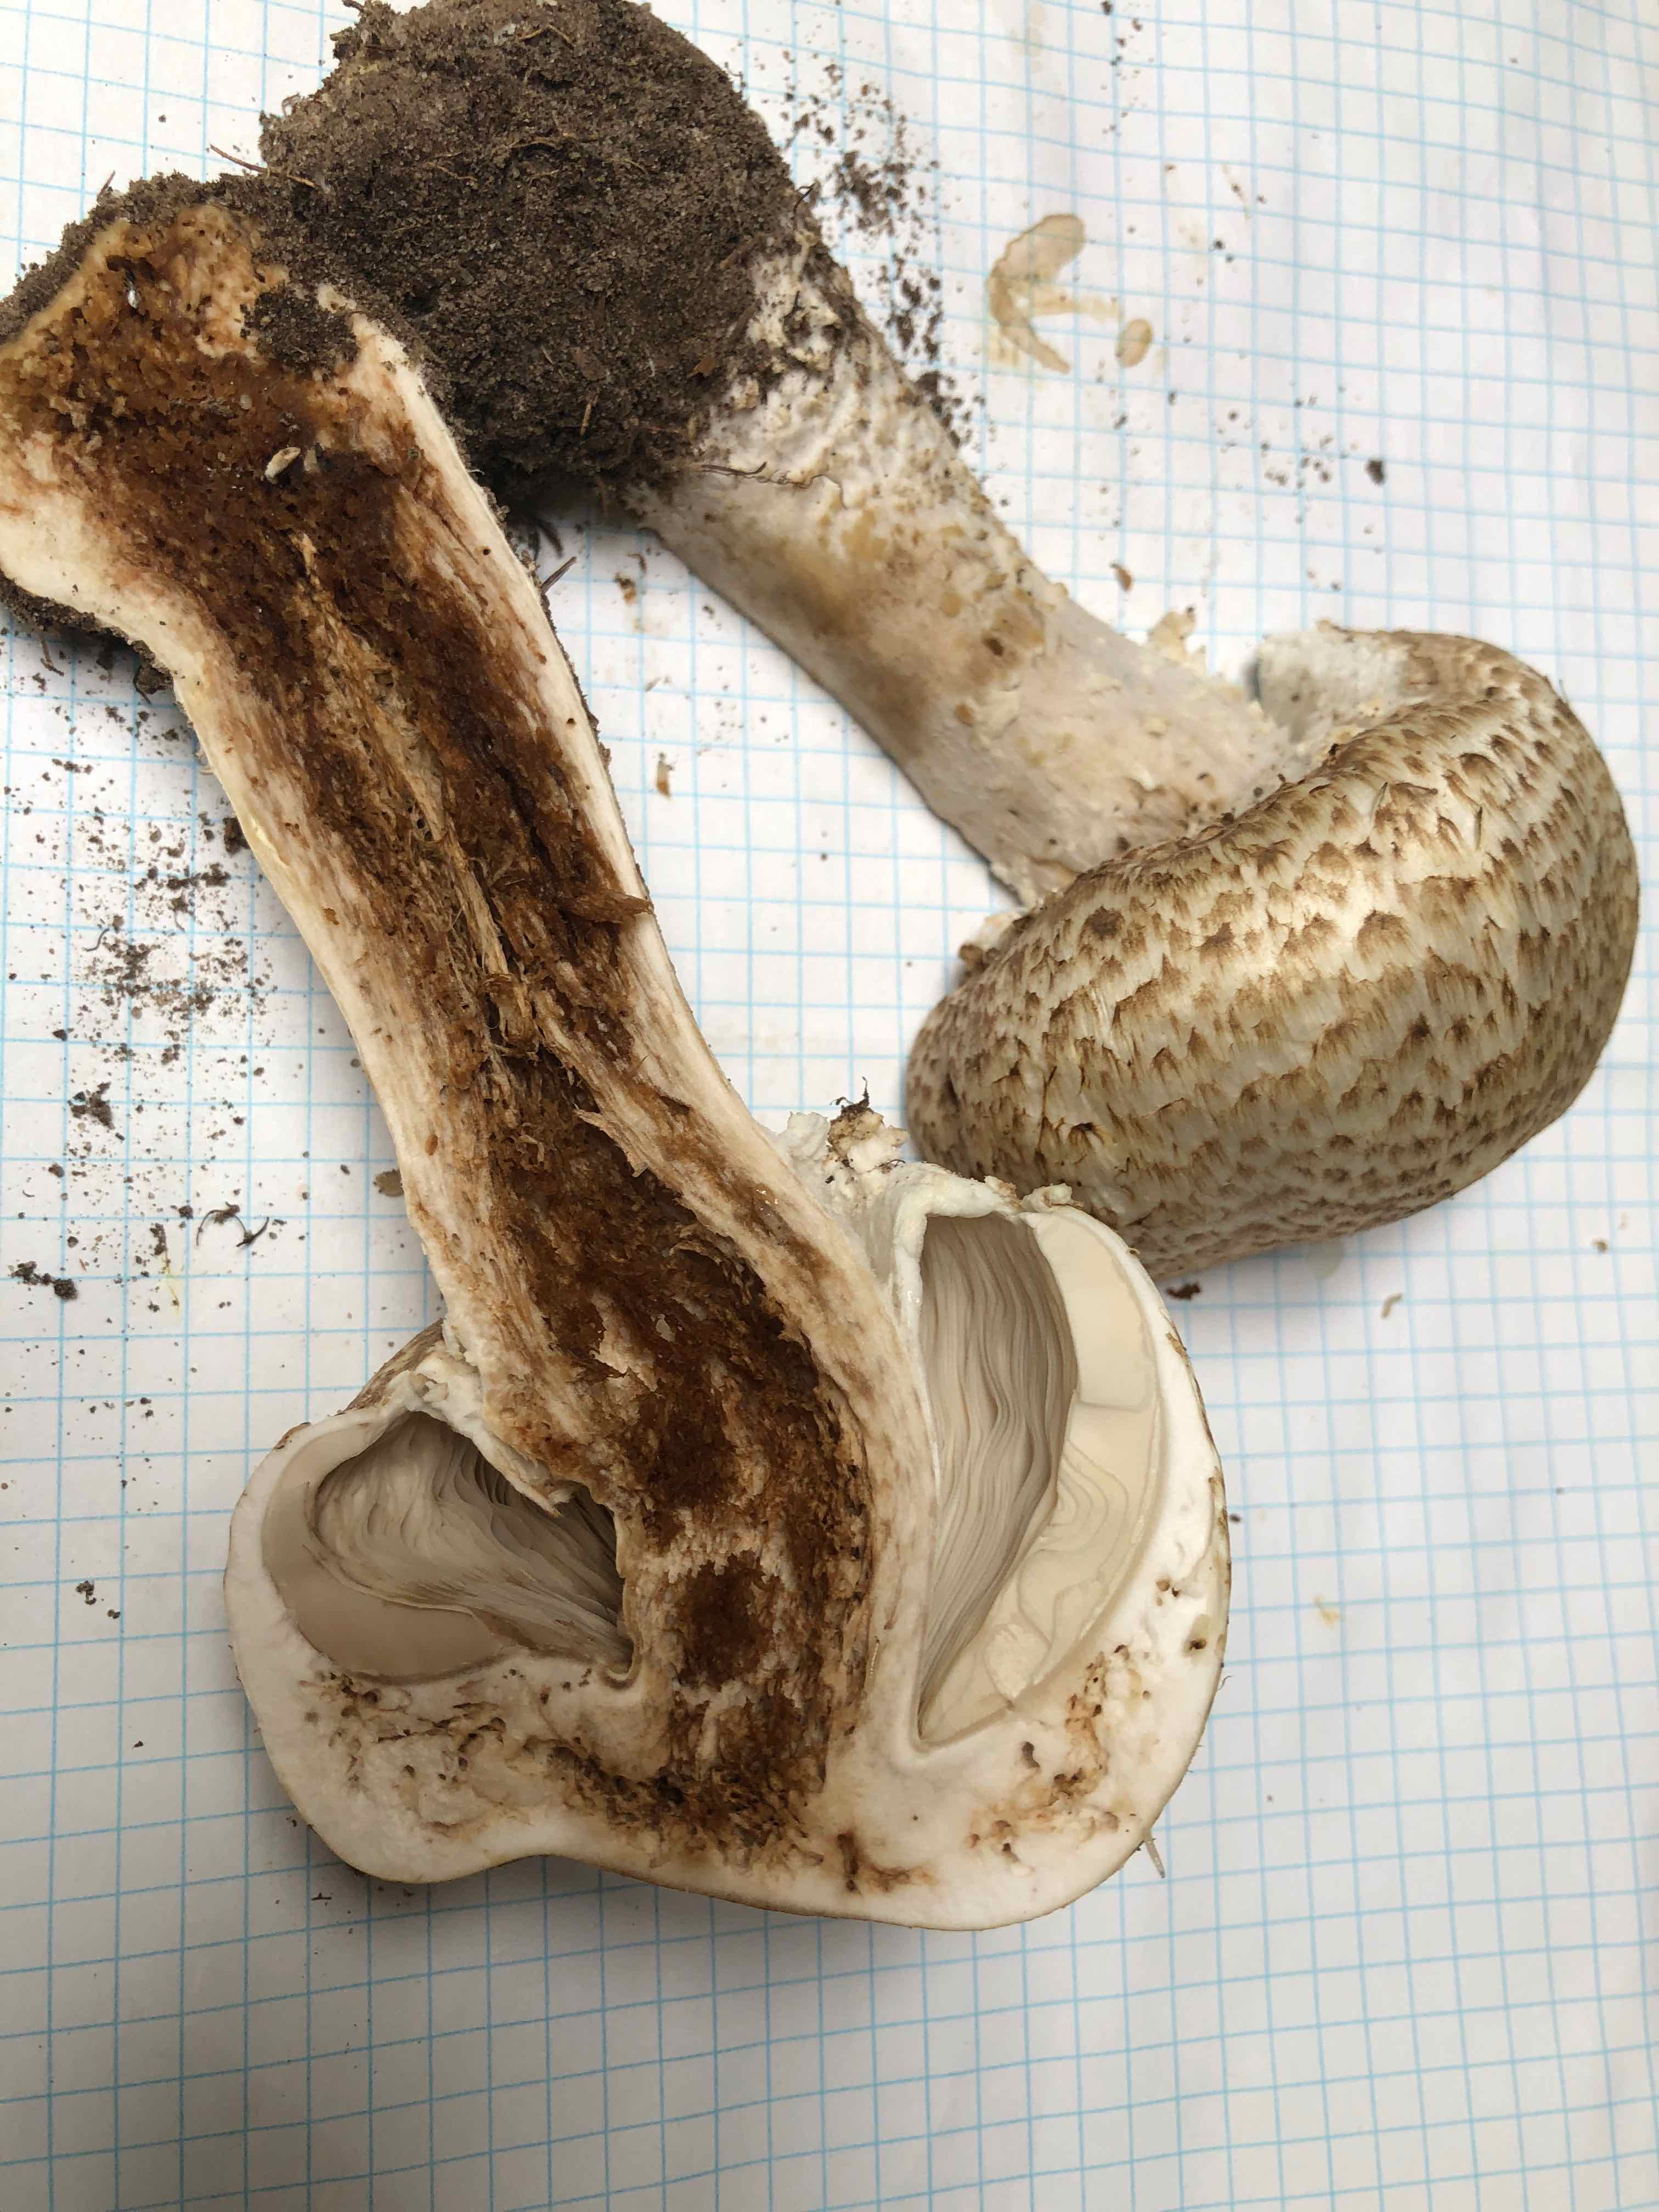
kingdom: Fungi
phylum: Basidiomycota
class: Agaricomycetes
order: Agaricales
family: Agaricaceae
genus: Agaricus
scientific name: Agaricus augustus
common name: prægtig champignon
